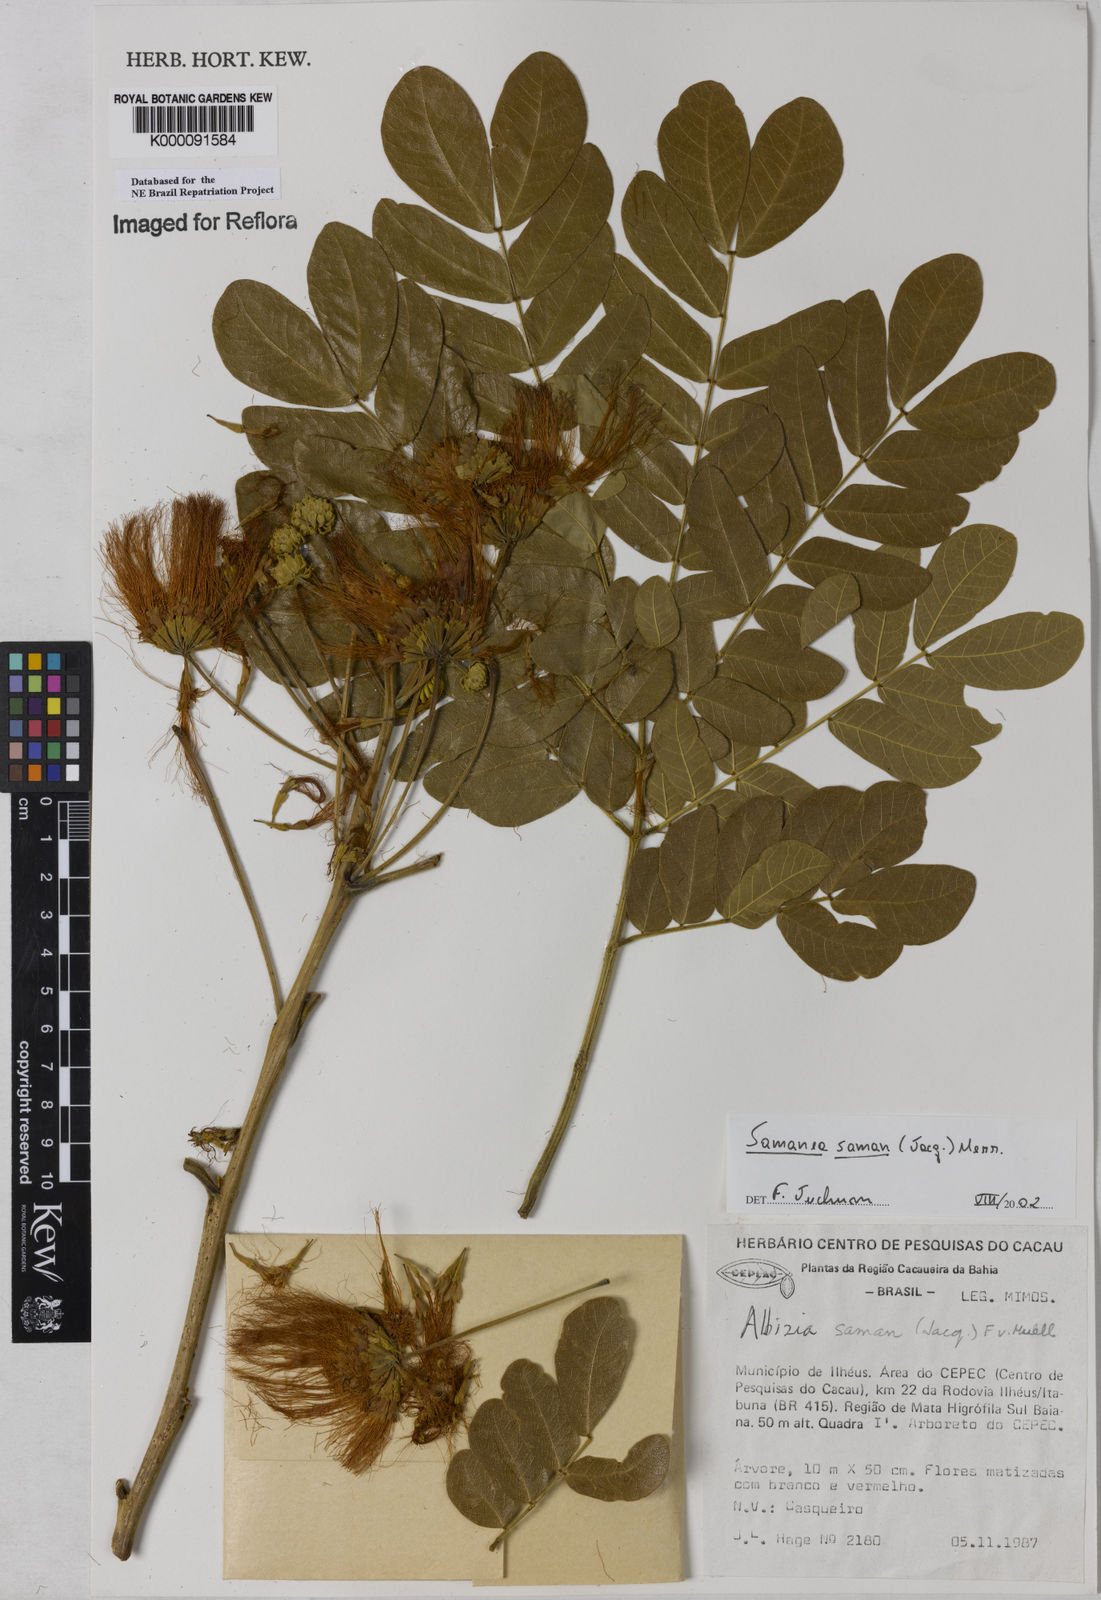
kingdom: Plantae
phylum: Tracheophyta
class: Magnoliopsida
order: Fabales
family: Fabaceae
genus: Samanea
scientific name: Samanea saman
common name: Raintree
